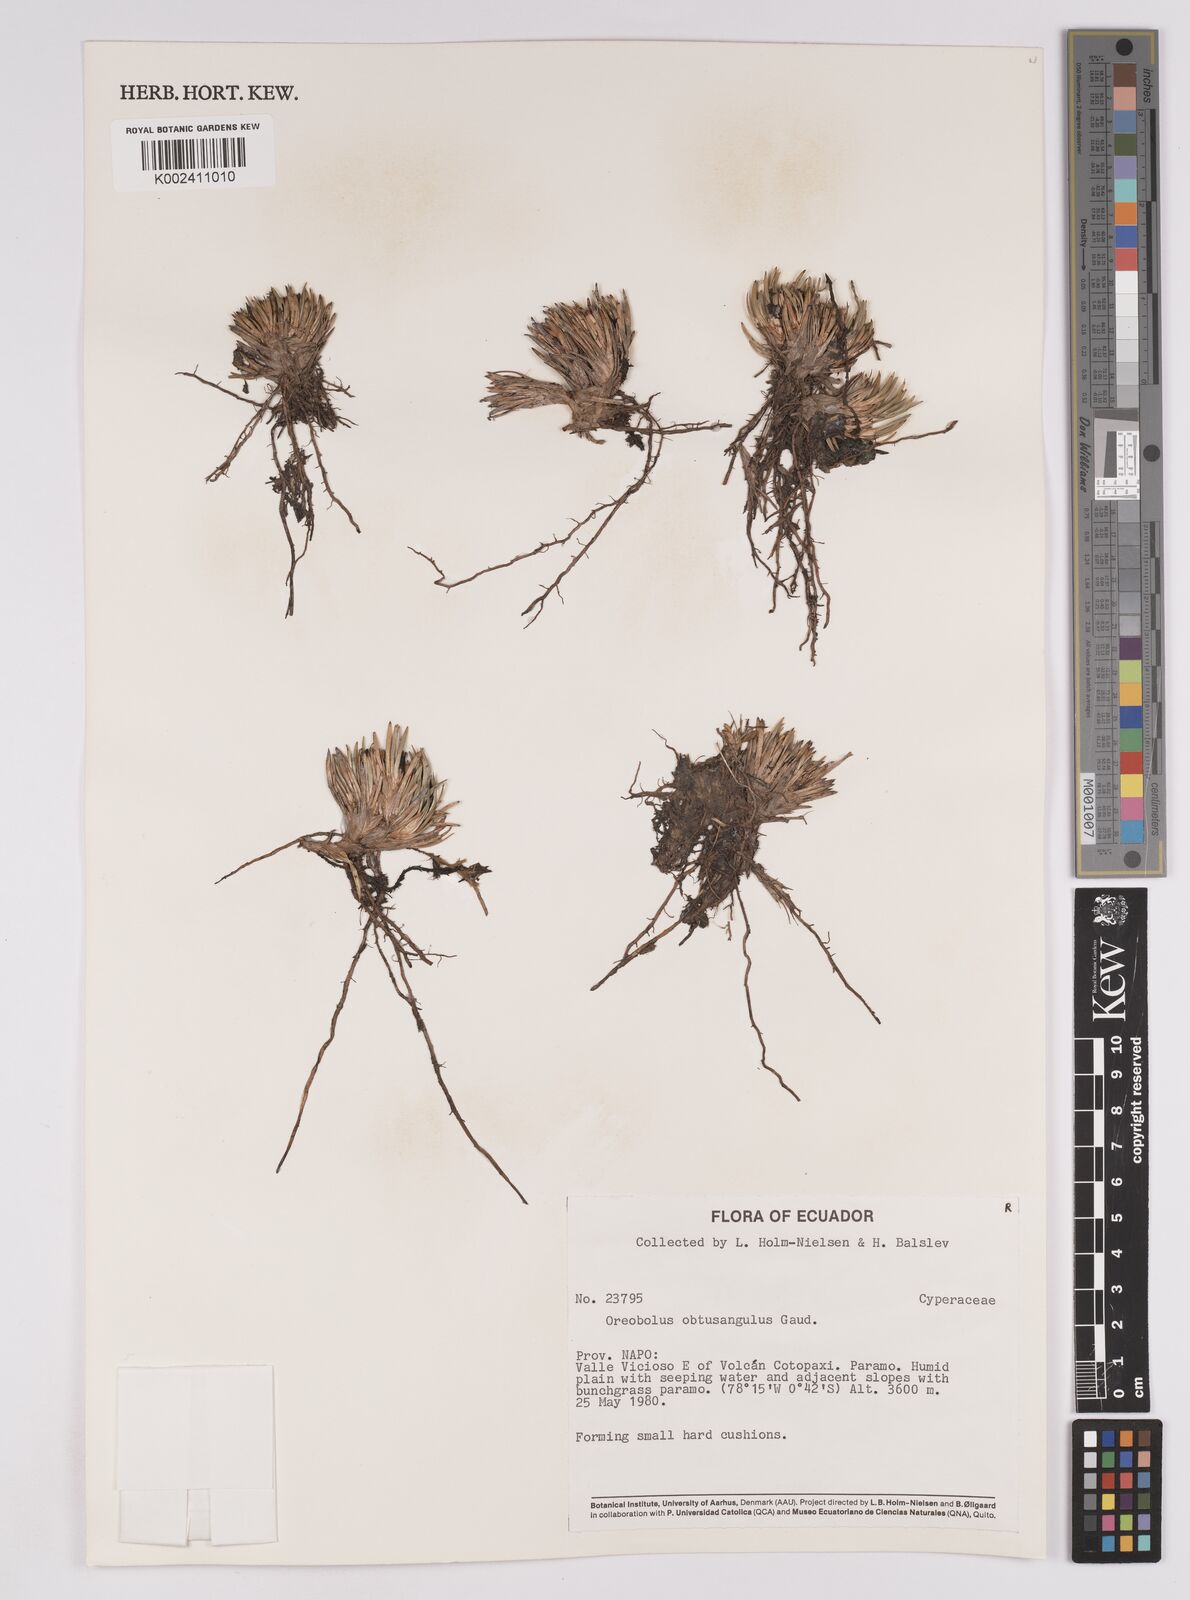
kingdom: Plantae
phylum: Tracheophyta
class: Liliopsida
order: Poales
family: Cyperaceae
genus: Oreobolus
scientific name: Oreobolus obtusangulus
